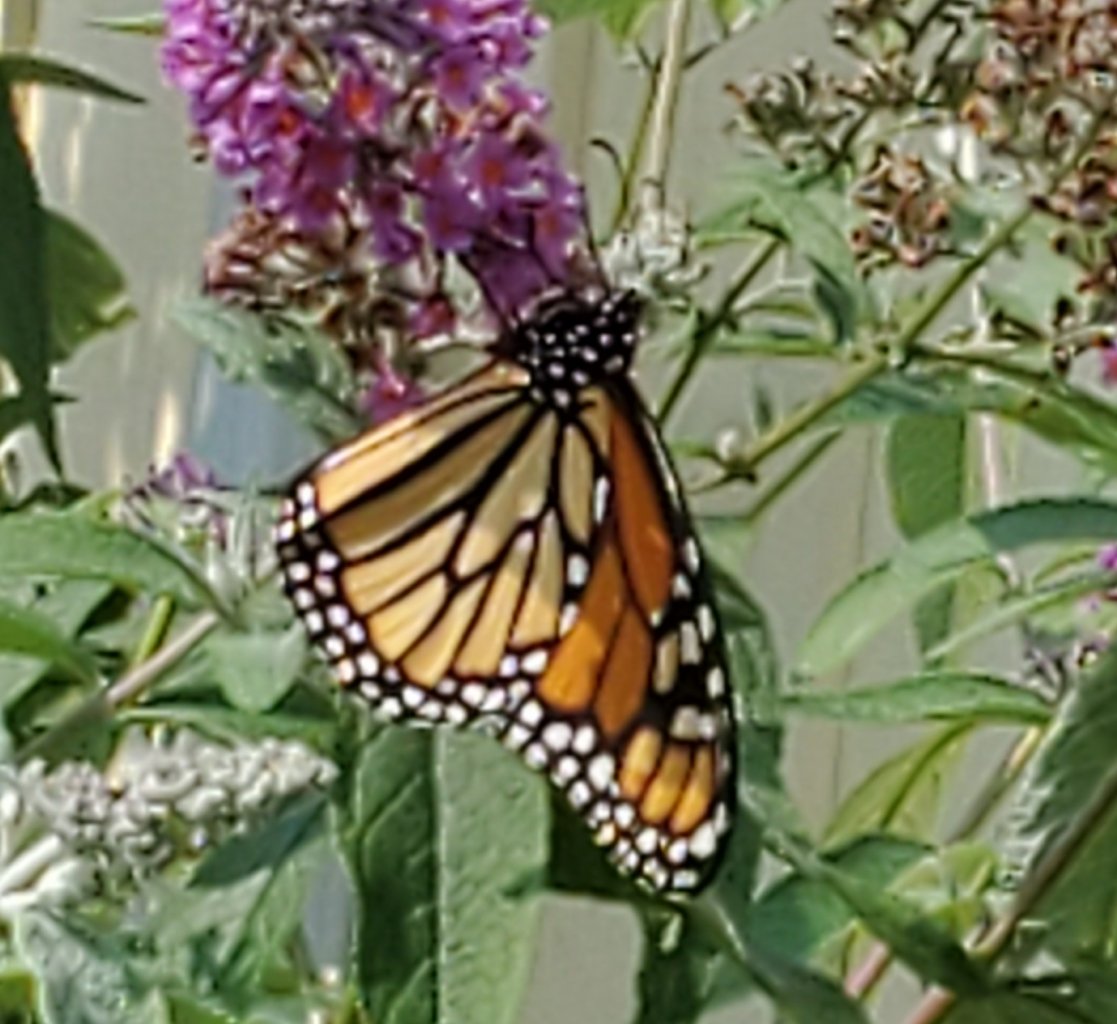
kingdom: Animalia
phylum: Arthropoda
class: Insecta
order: Lepidoptera
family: Nymphalidae
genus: Danaus
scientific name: Danaus plexippus
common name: Monarch
